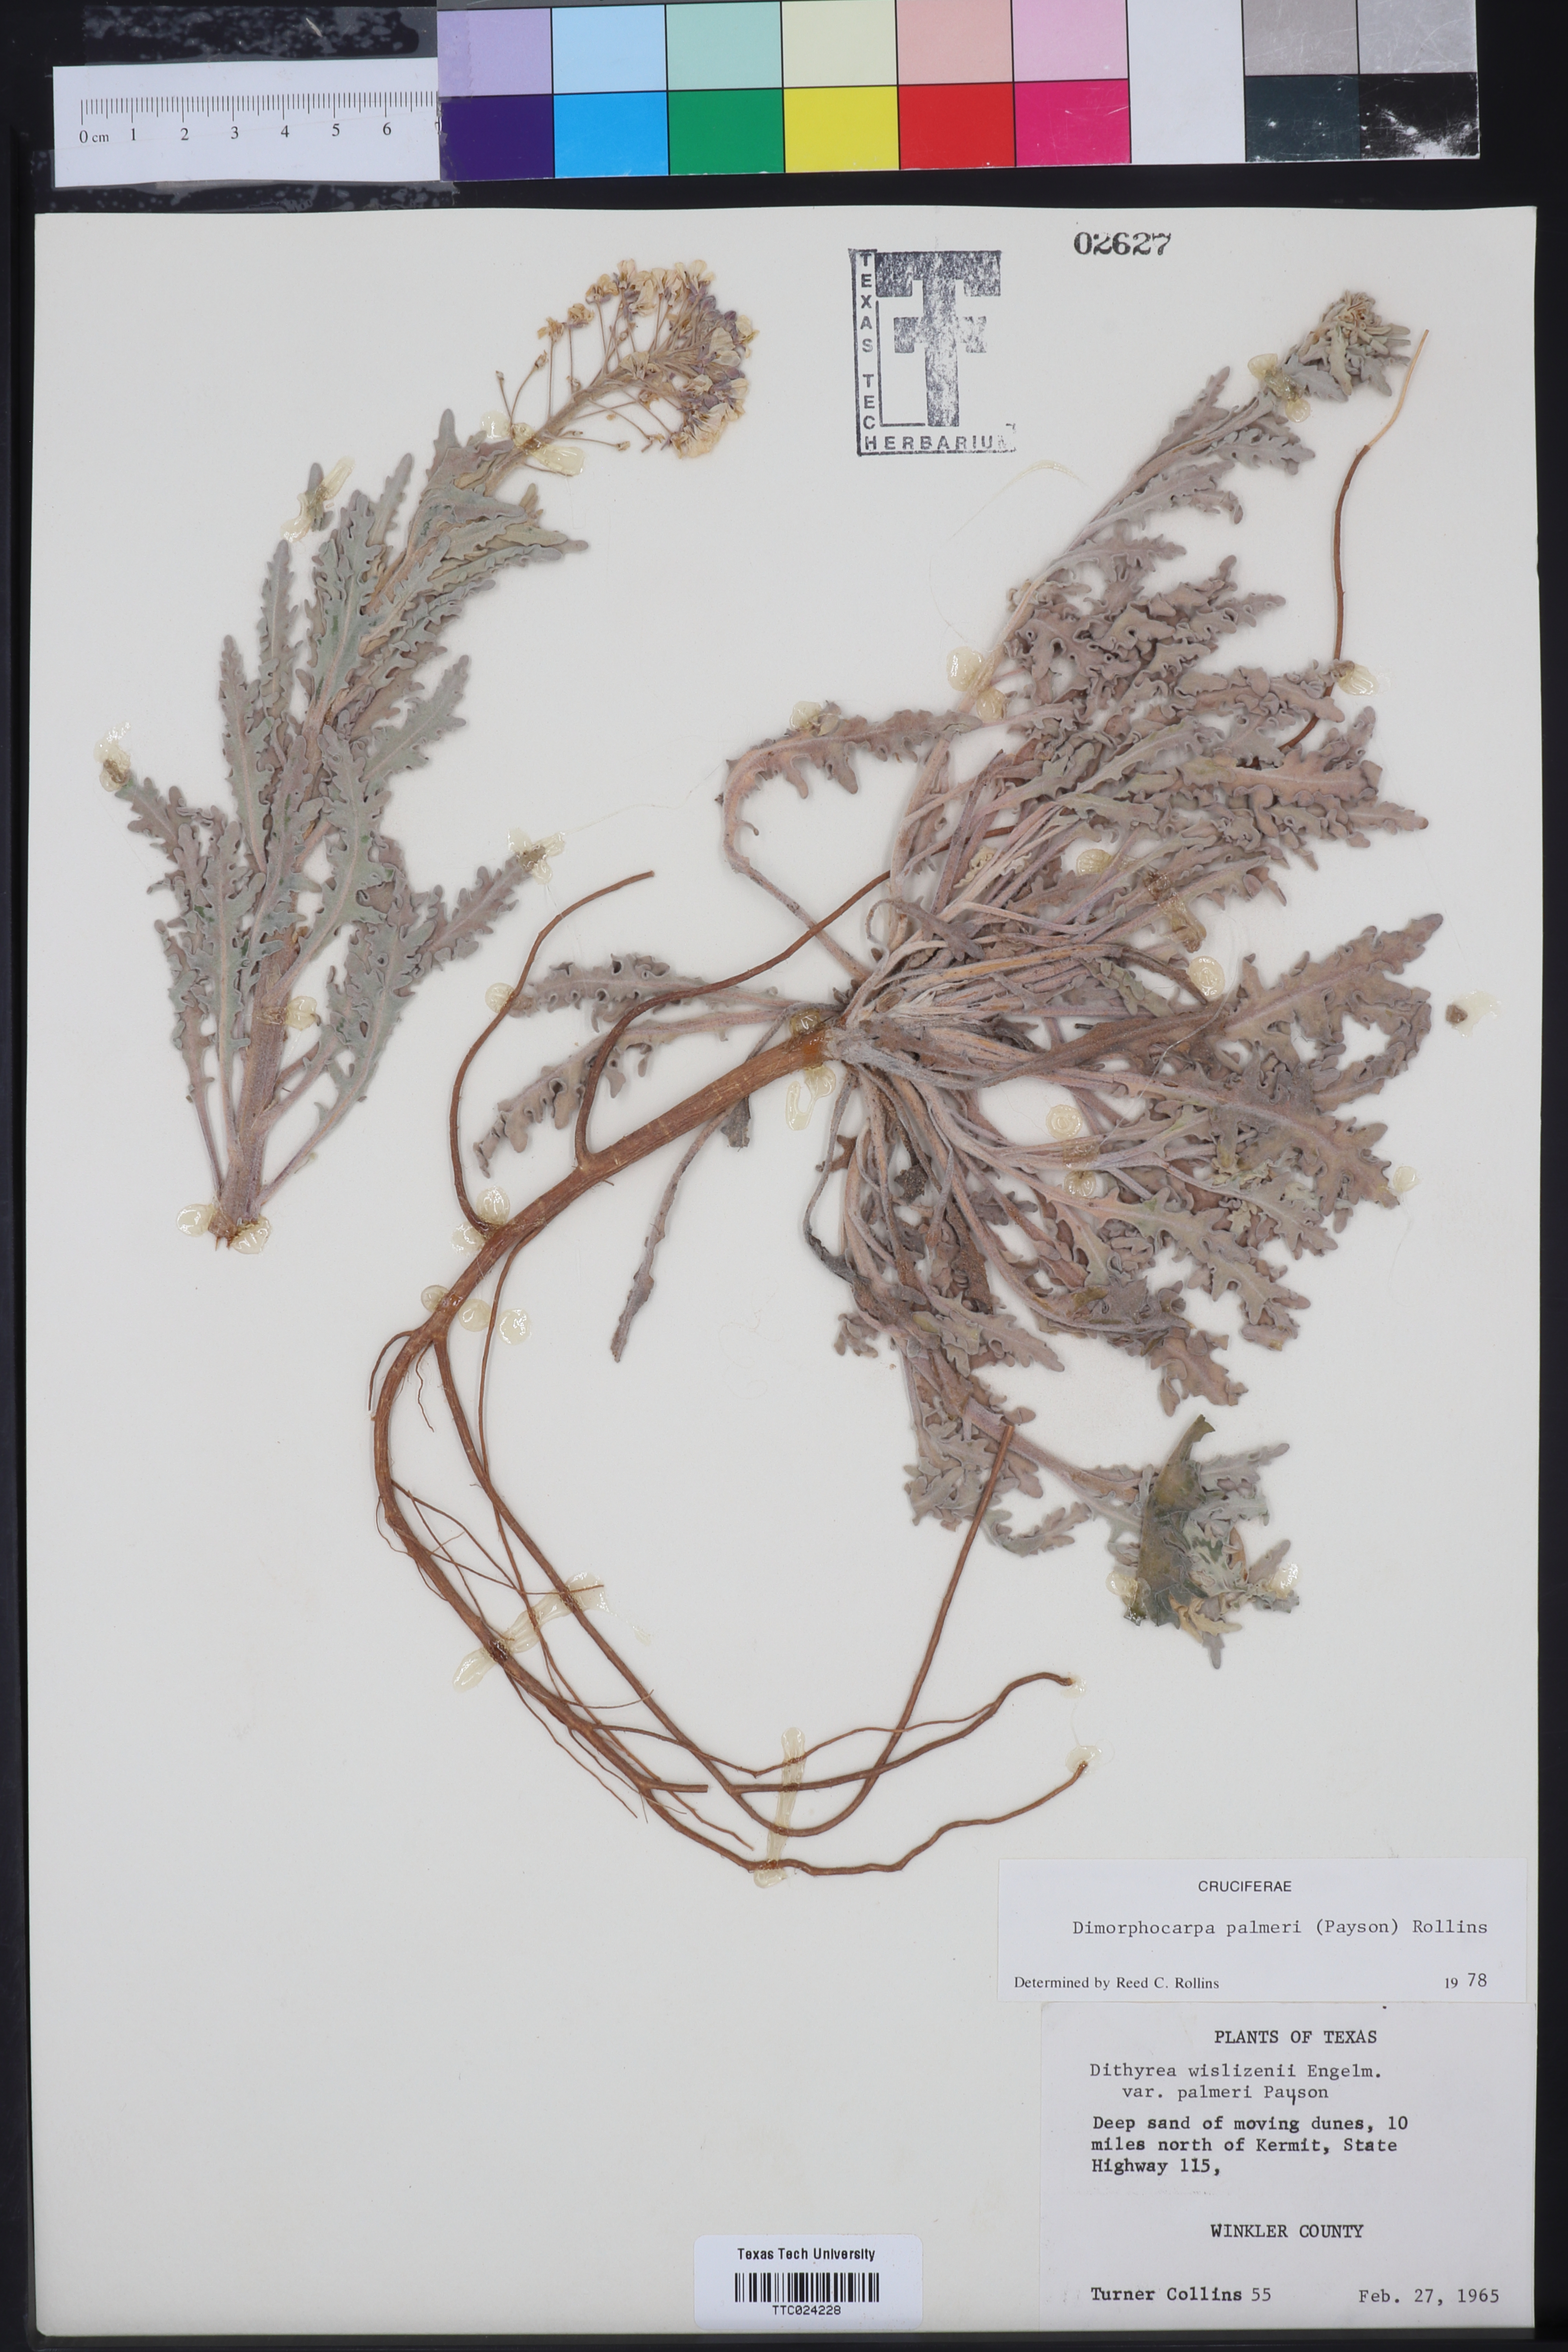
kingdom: Plantae
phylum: Tracheophyta
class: Magnoliopsida
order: Brassicales
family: Brassicaceae
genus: Dimorphocarpa
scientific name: Dimorphocarpa candicans
